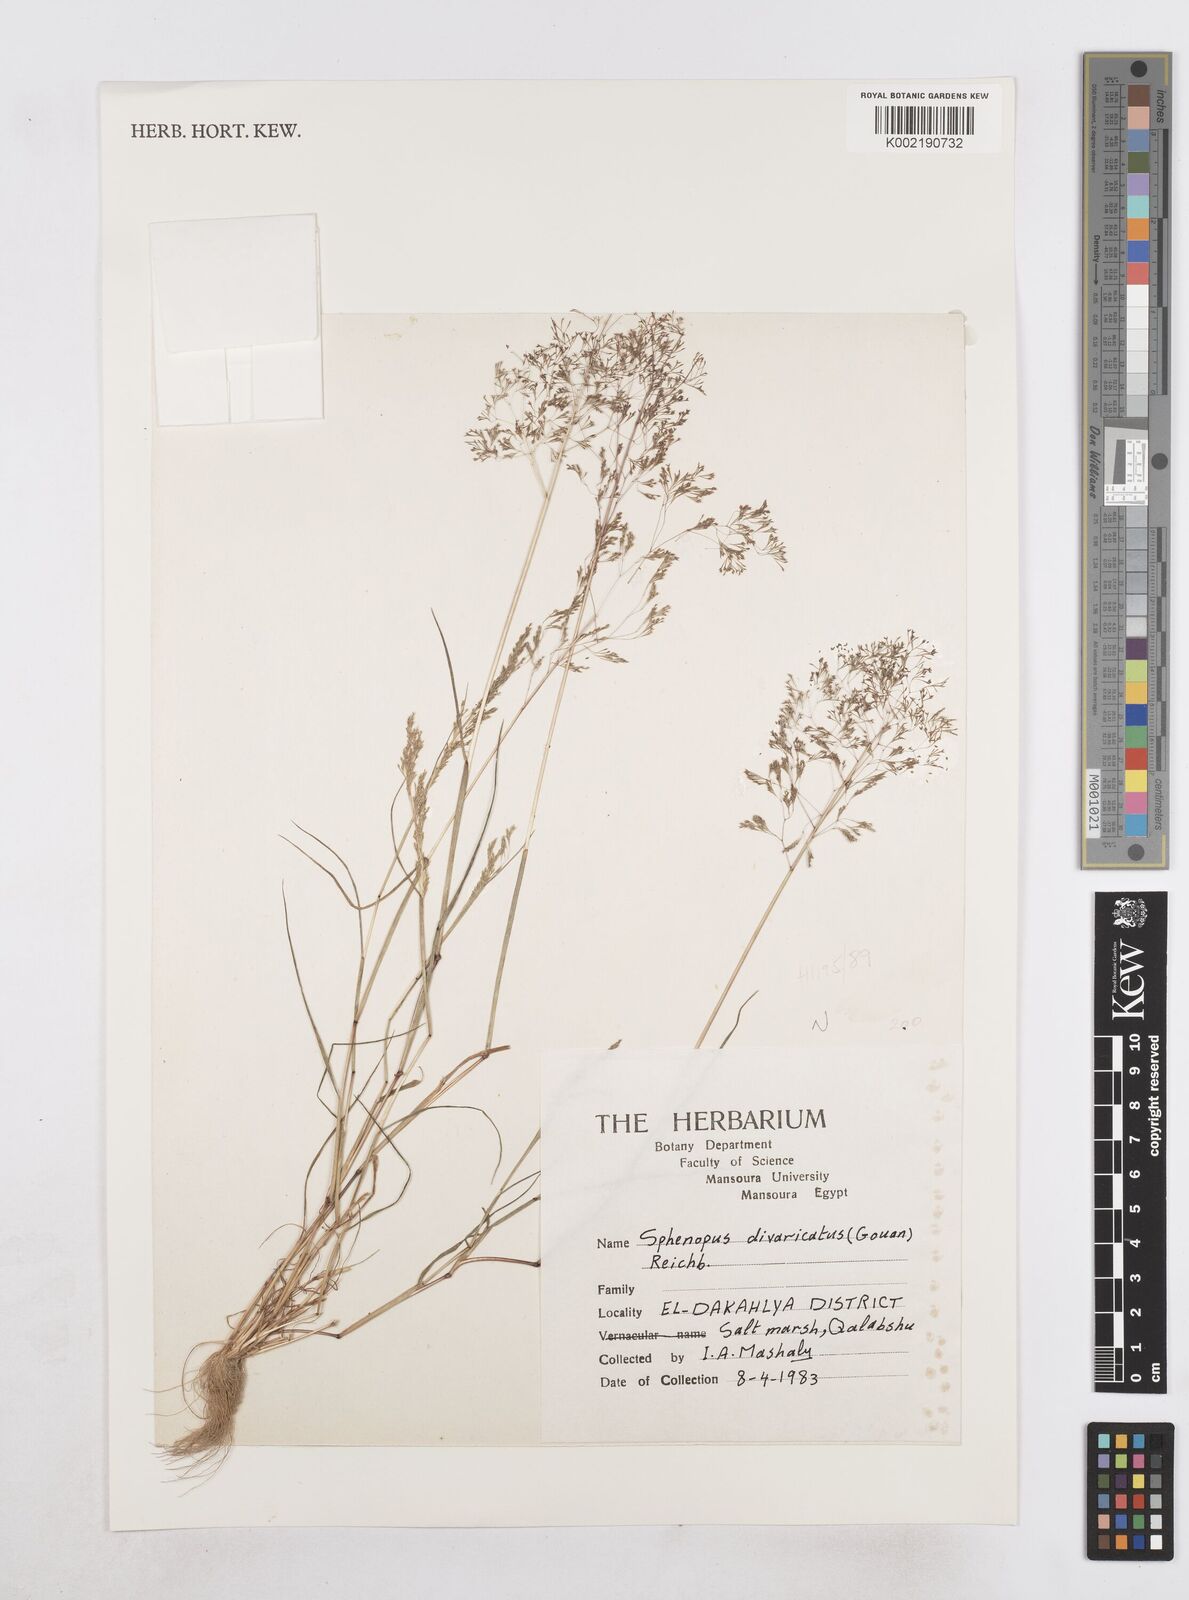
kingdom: Plantae
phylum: Tracheophyta
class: Liliopsida
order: Poales
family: Poaceae
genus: Sphenopus
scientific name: Sphenopus divaricatus
